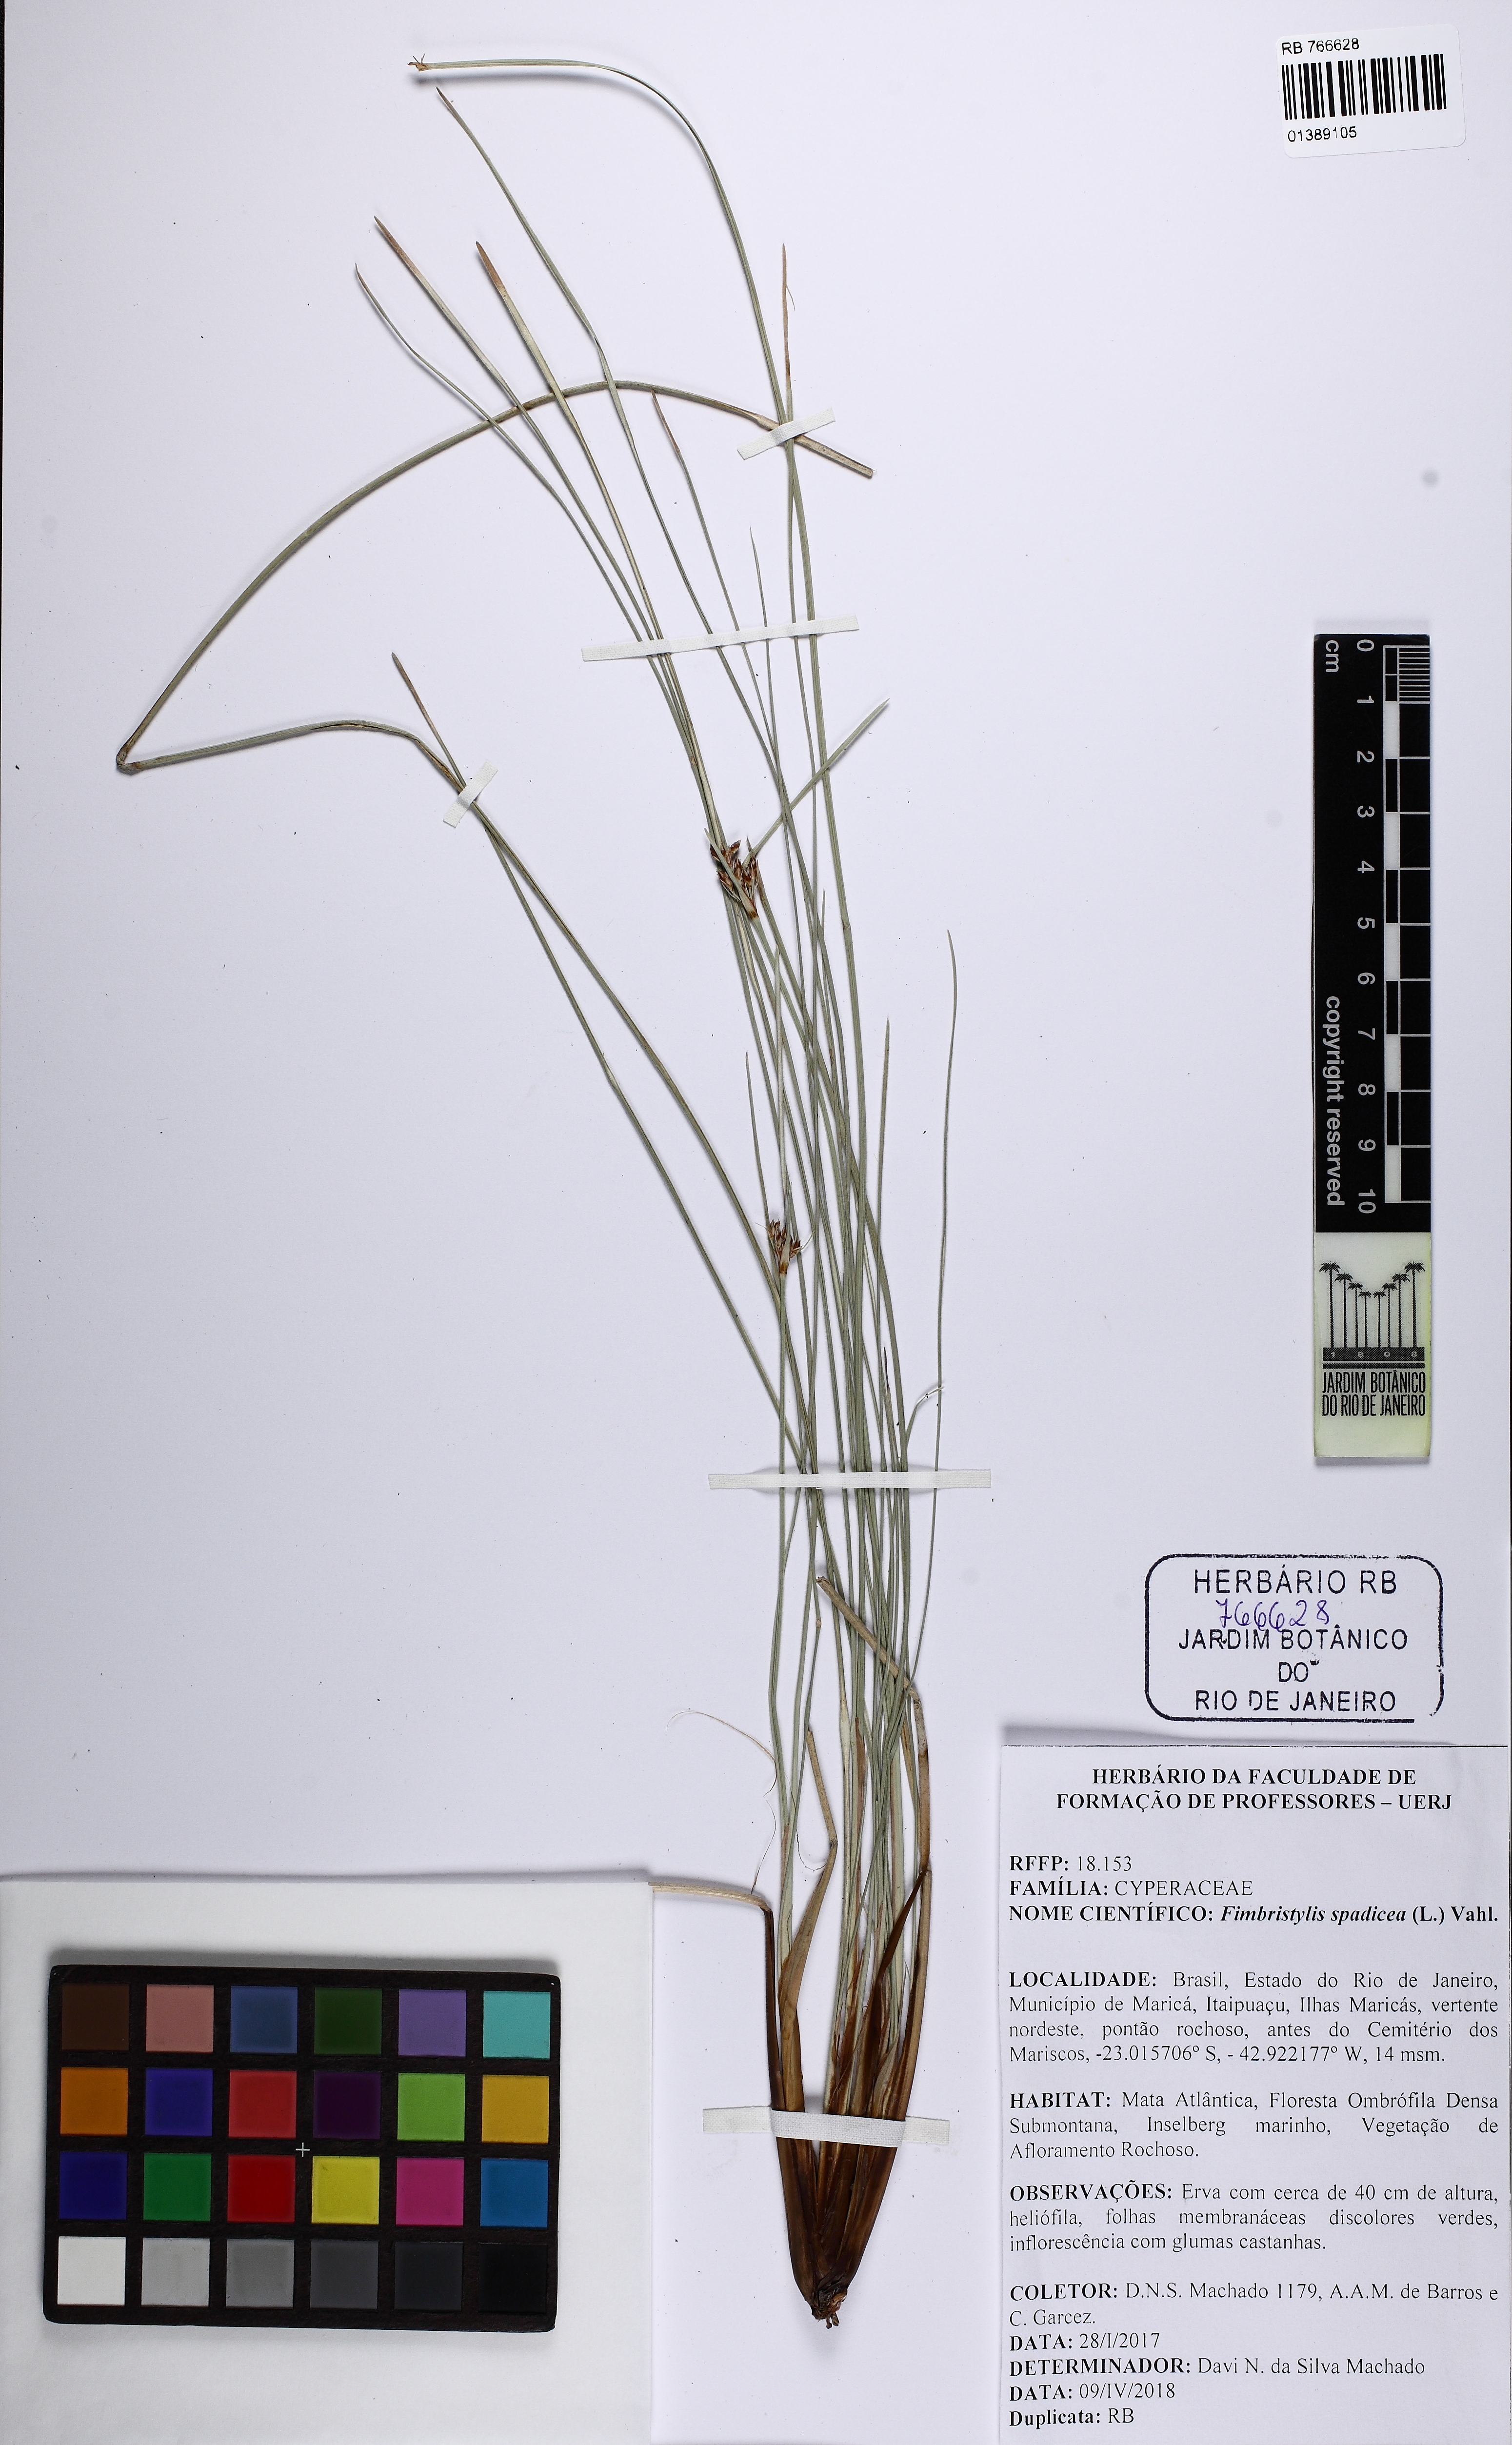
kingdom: Plantae
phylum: Tracheophyta
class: Liliopsida
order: Poales
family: Cyperaceae
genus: Fimbristylis
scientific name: Fimbristylis spadicea
